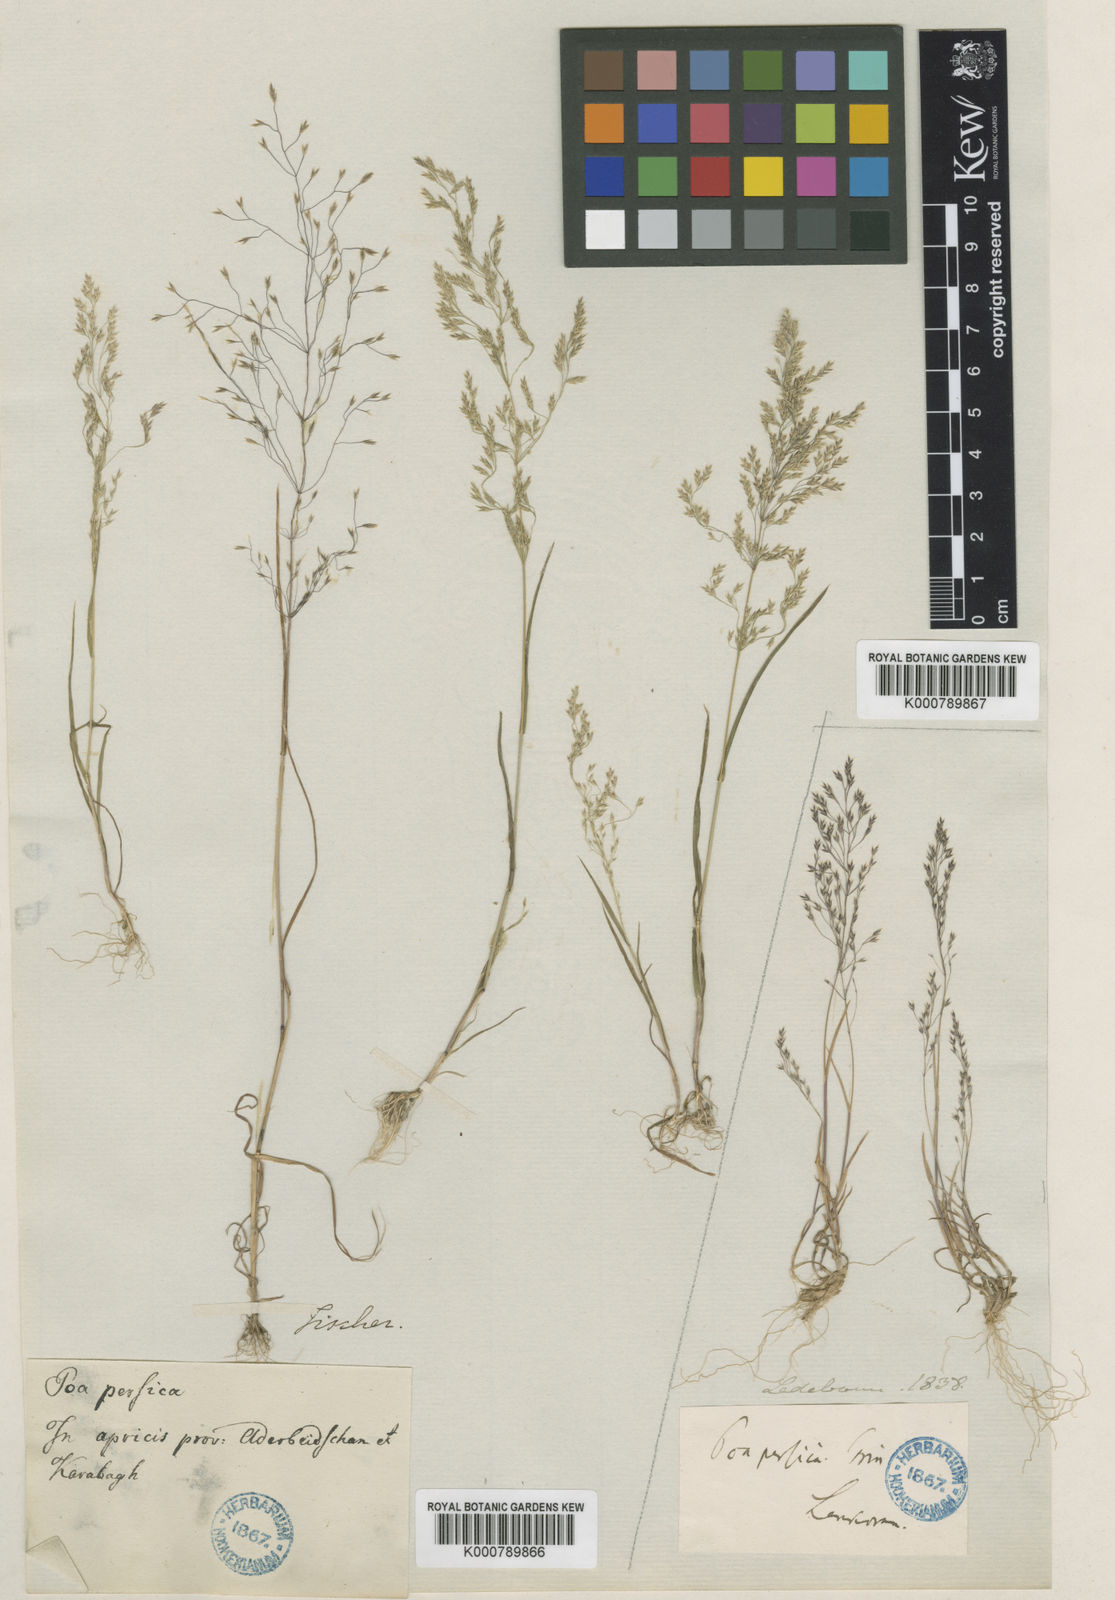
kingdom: Plantae
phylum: Tracheophyta
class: Liliopsida
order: Poales
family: Poaceae
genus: Poa
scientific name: Poa persica
